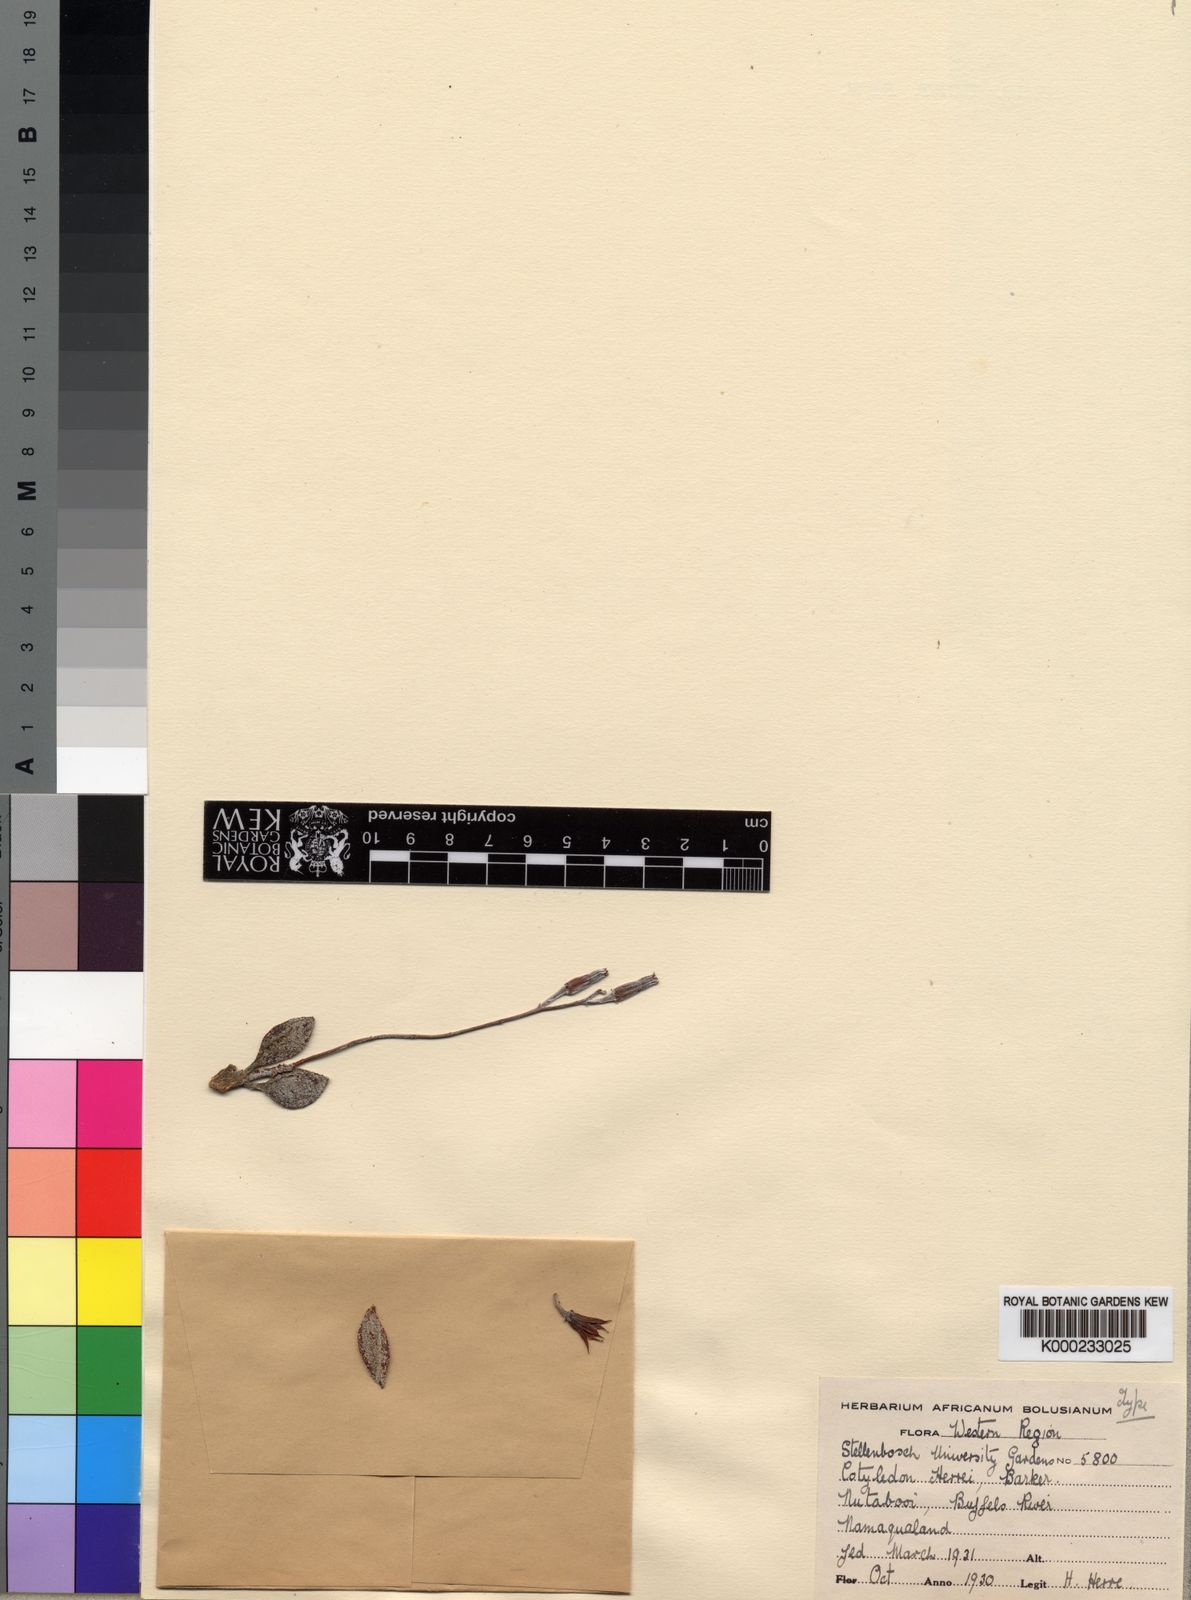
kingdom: Plantae
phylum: Tracheophyta
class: Magnoliopsida
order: Saxifragales
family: Crassulaceae
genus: Adromischus
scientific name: Adromischus marianiae
